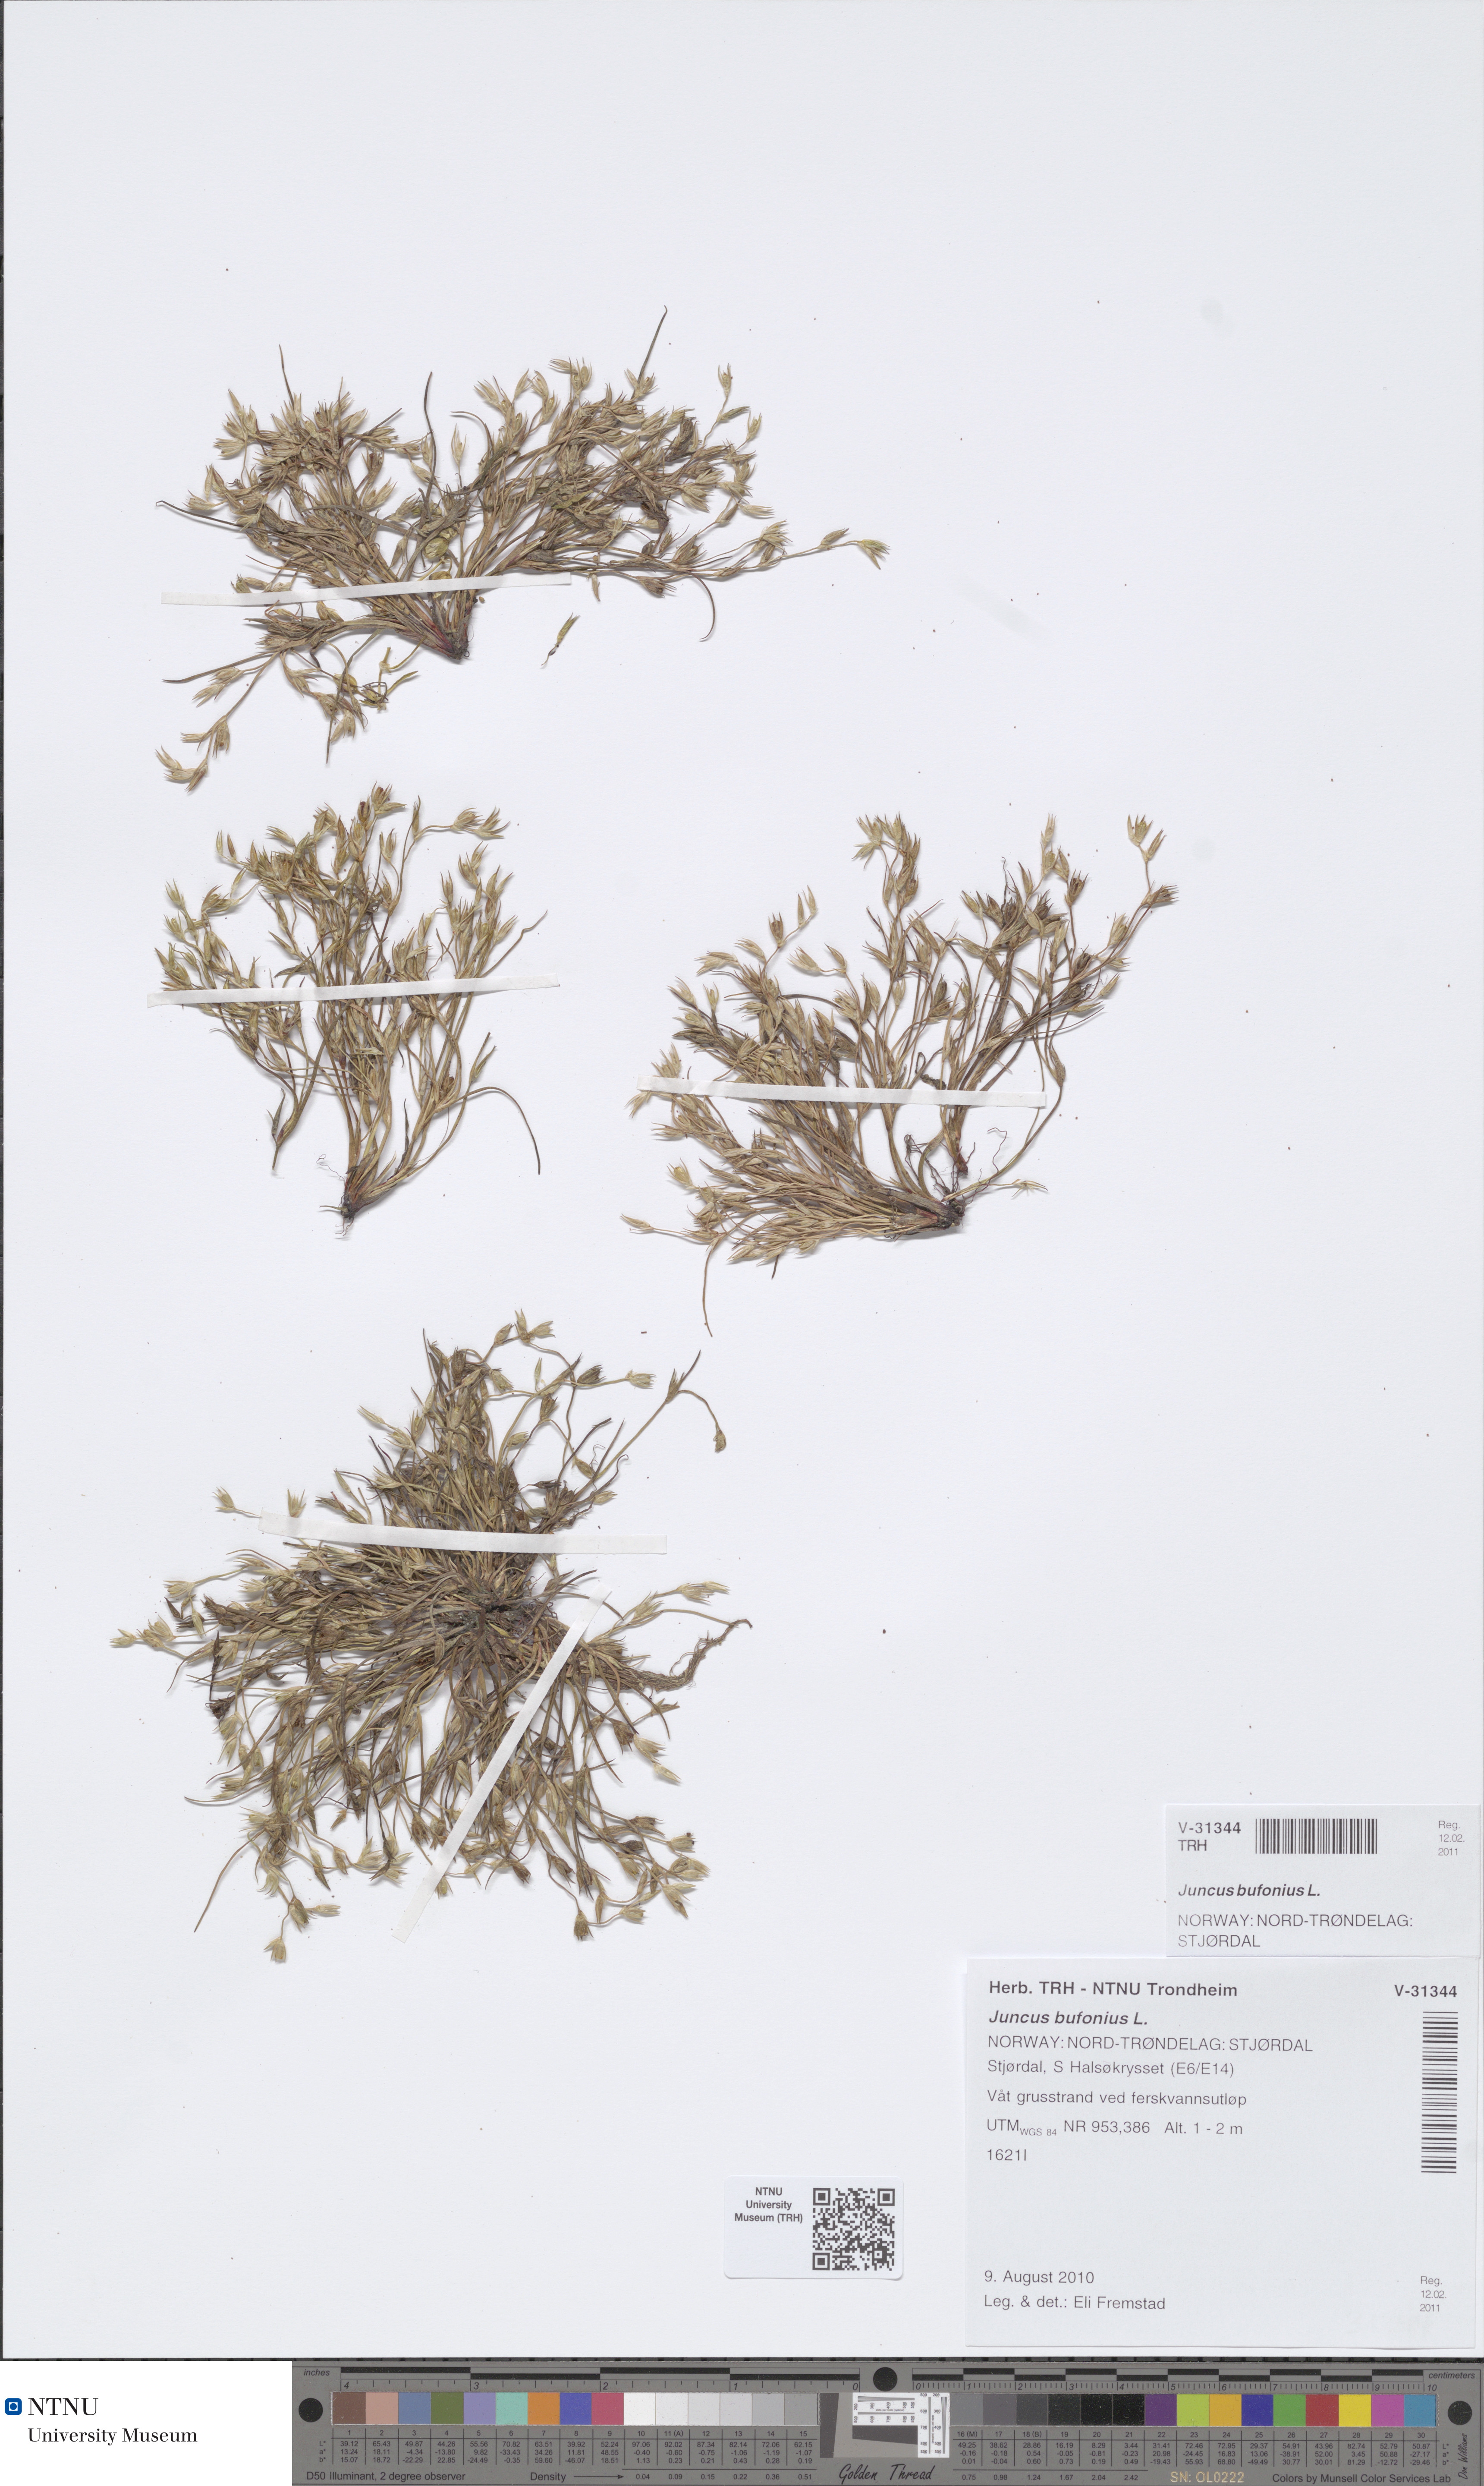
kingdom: Plantae
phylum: Tracheophyta
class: Liliopsida
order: Poales
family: Juncaceae
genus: Juncus
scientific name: Juncus bufonius
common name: Toad rush
